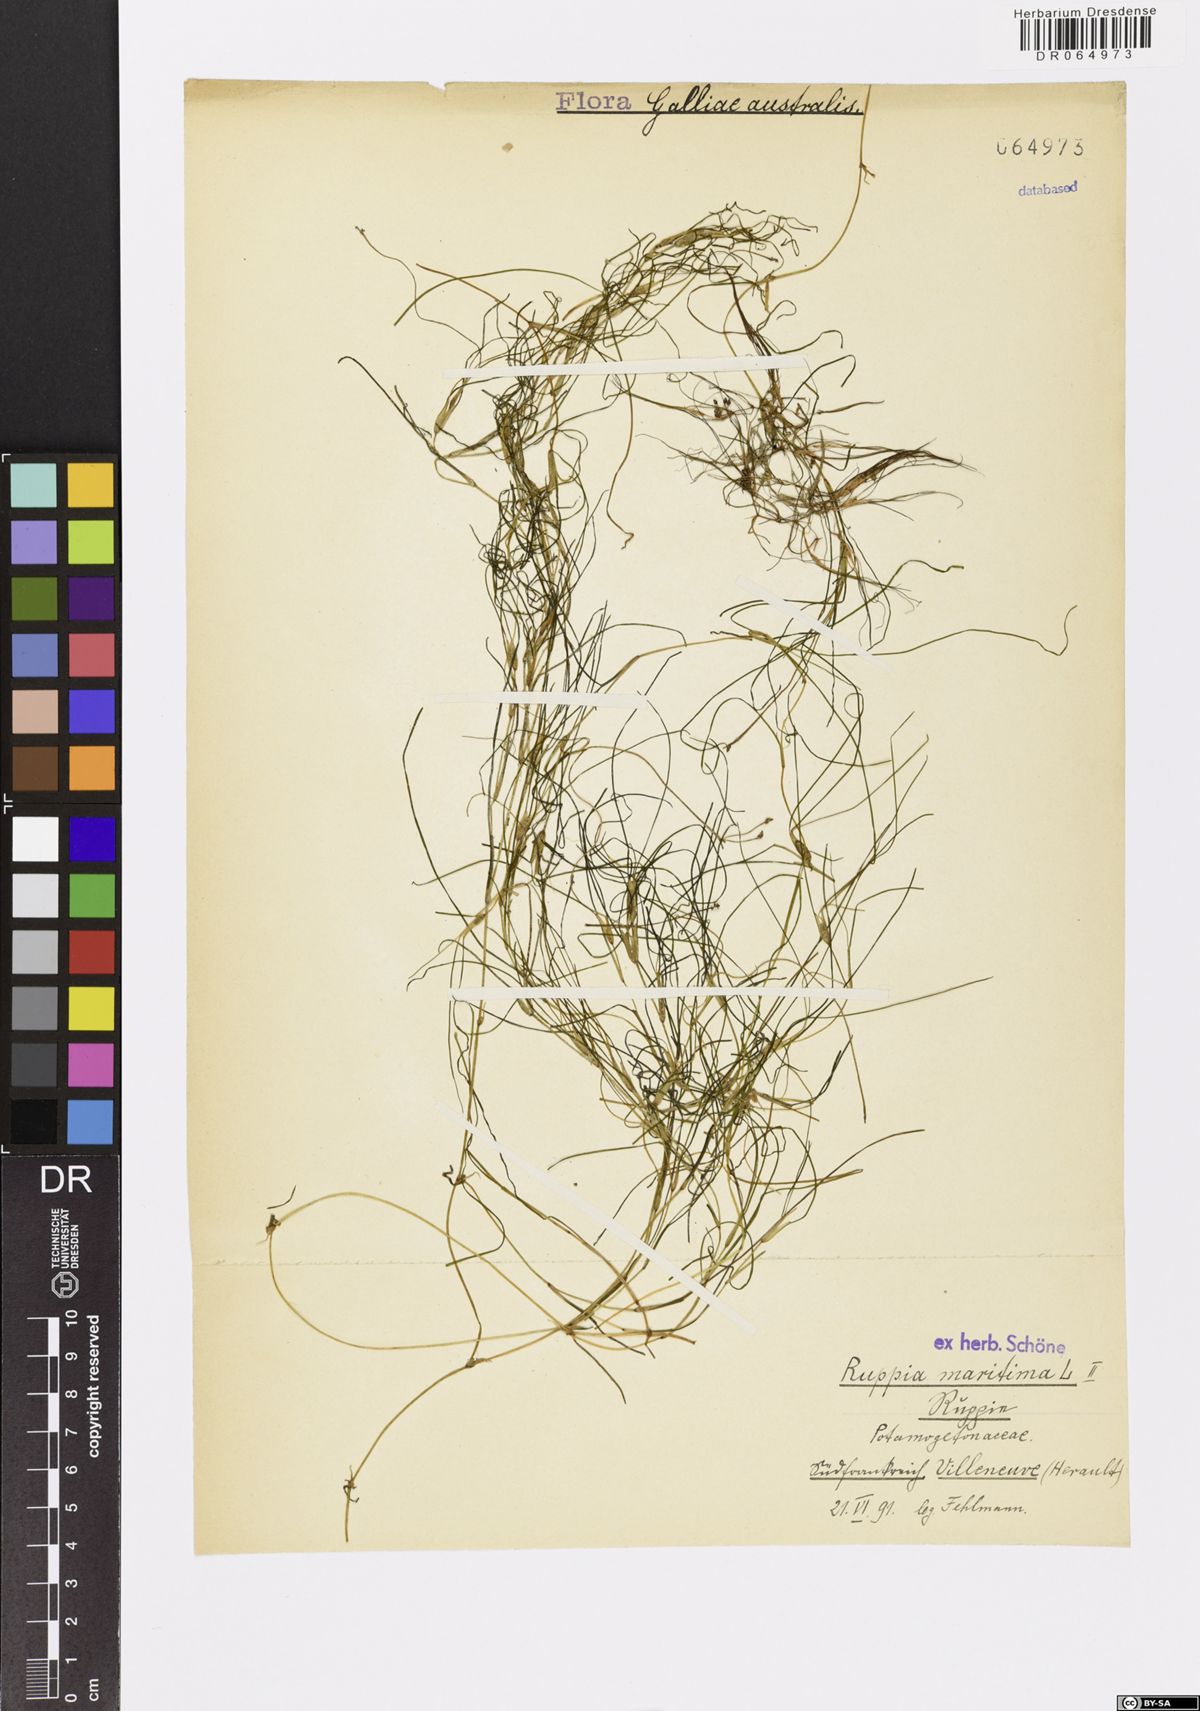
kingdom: Plantae
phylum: Tracheophyta
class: Liliopsida
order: Alismatales
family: Ruppiaceae
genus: Ruppia
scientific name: Ruppia maritima
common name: Beaked tasselweed
